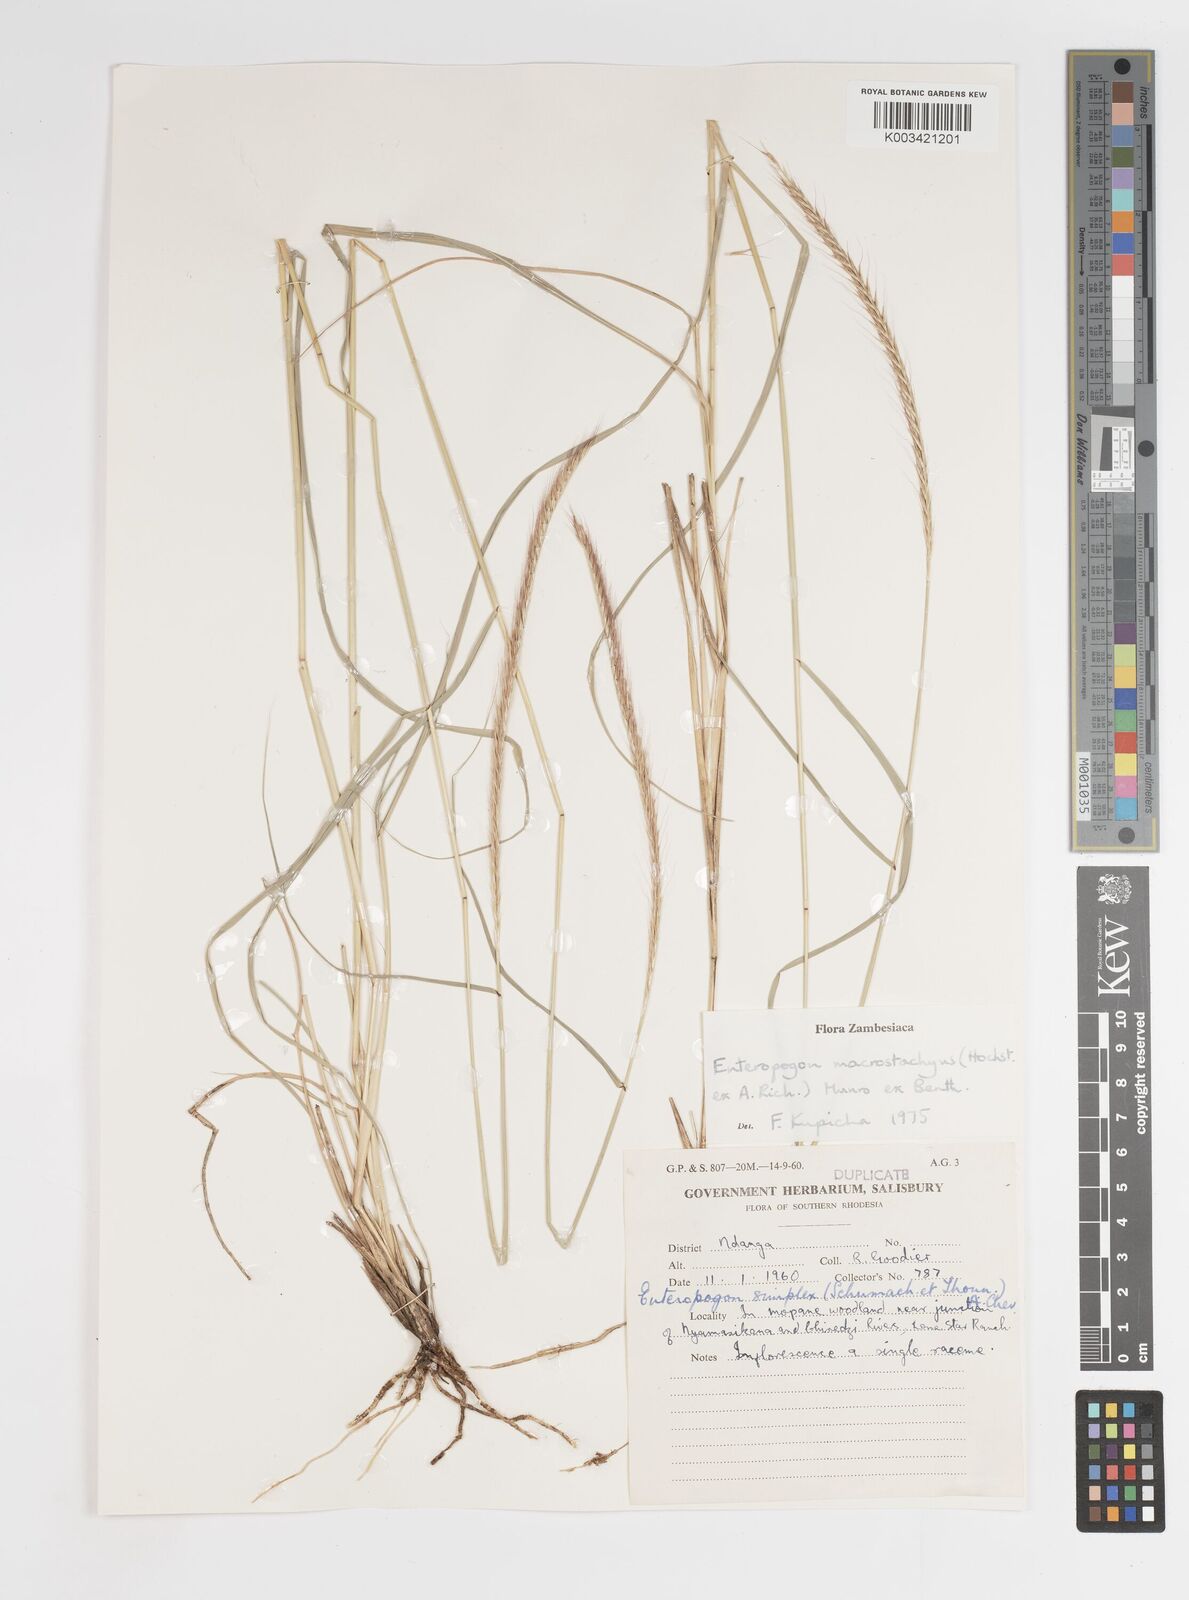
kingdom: Plantae
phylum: Tracheophyta
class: Liliopsida
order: Poales
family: Poaceae
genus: Enteropogon
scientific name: Enteropogon macrostachyus
